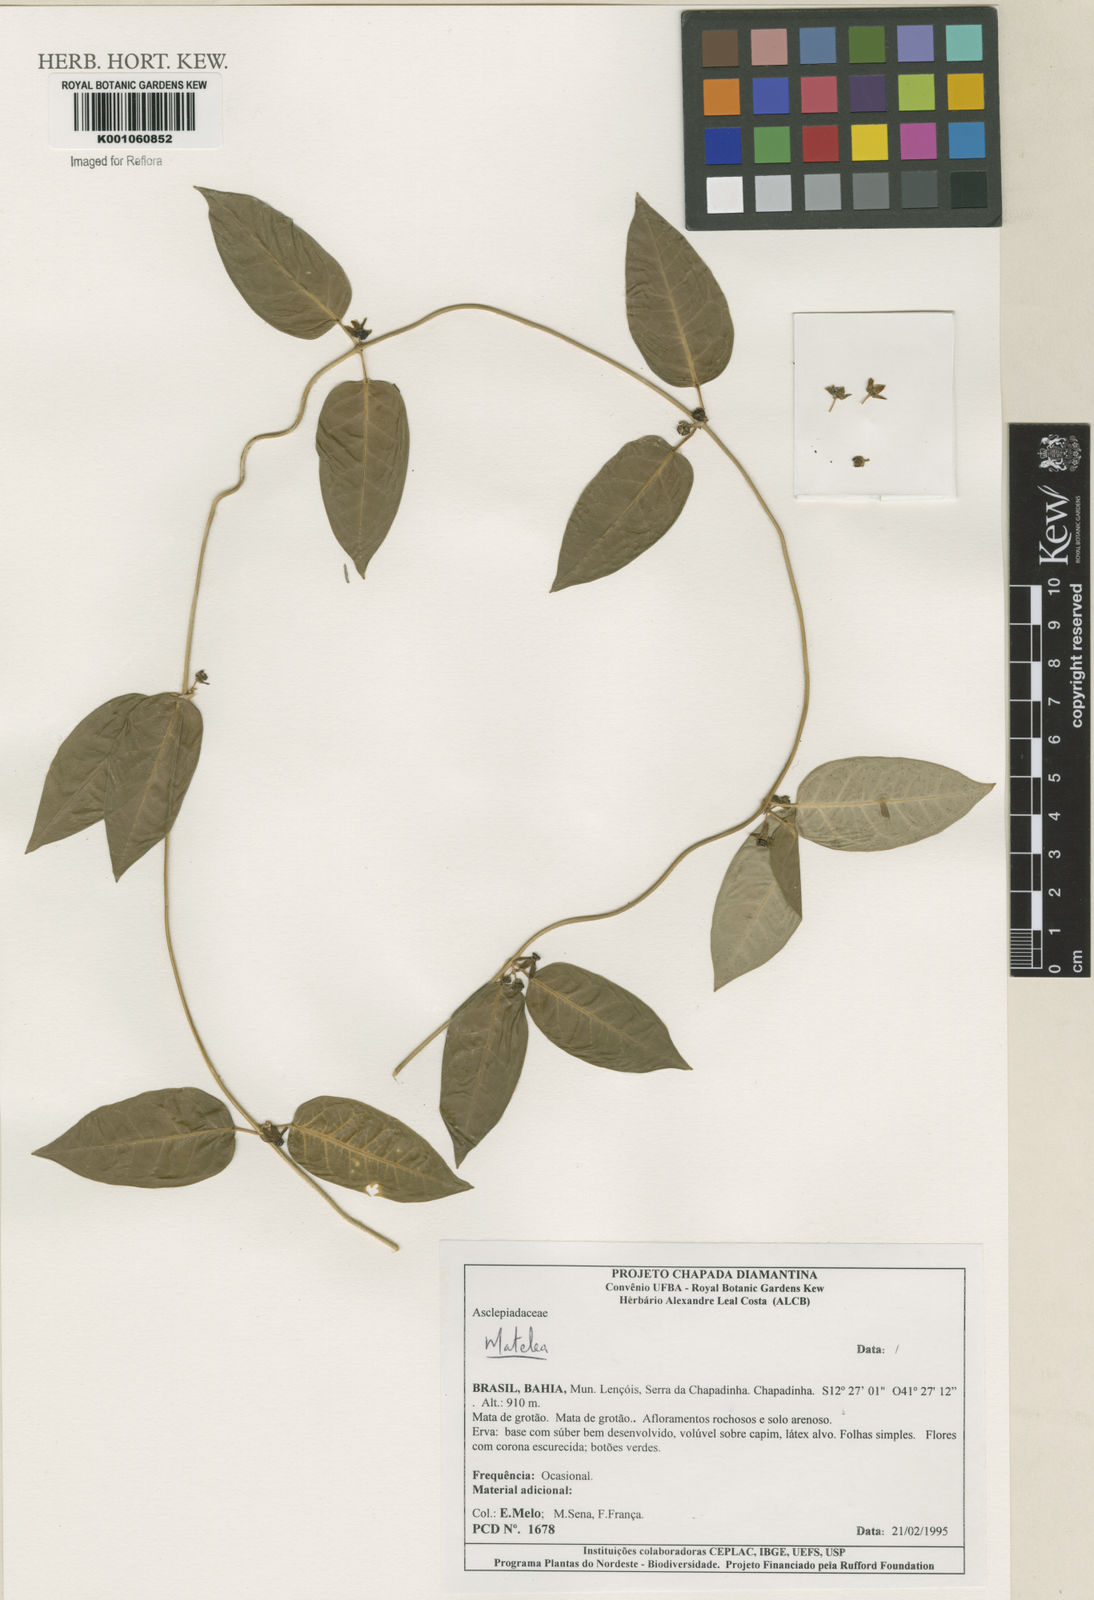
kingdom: Plantae
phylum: Tracheophyta
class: Magnoliopsida
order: Gentianales
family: Apocynaceae
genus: Matelea
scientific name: Matelea
